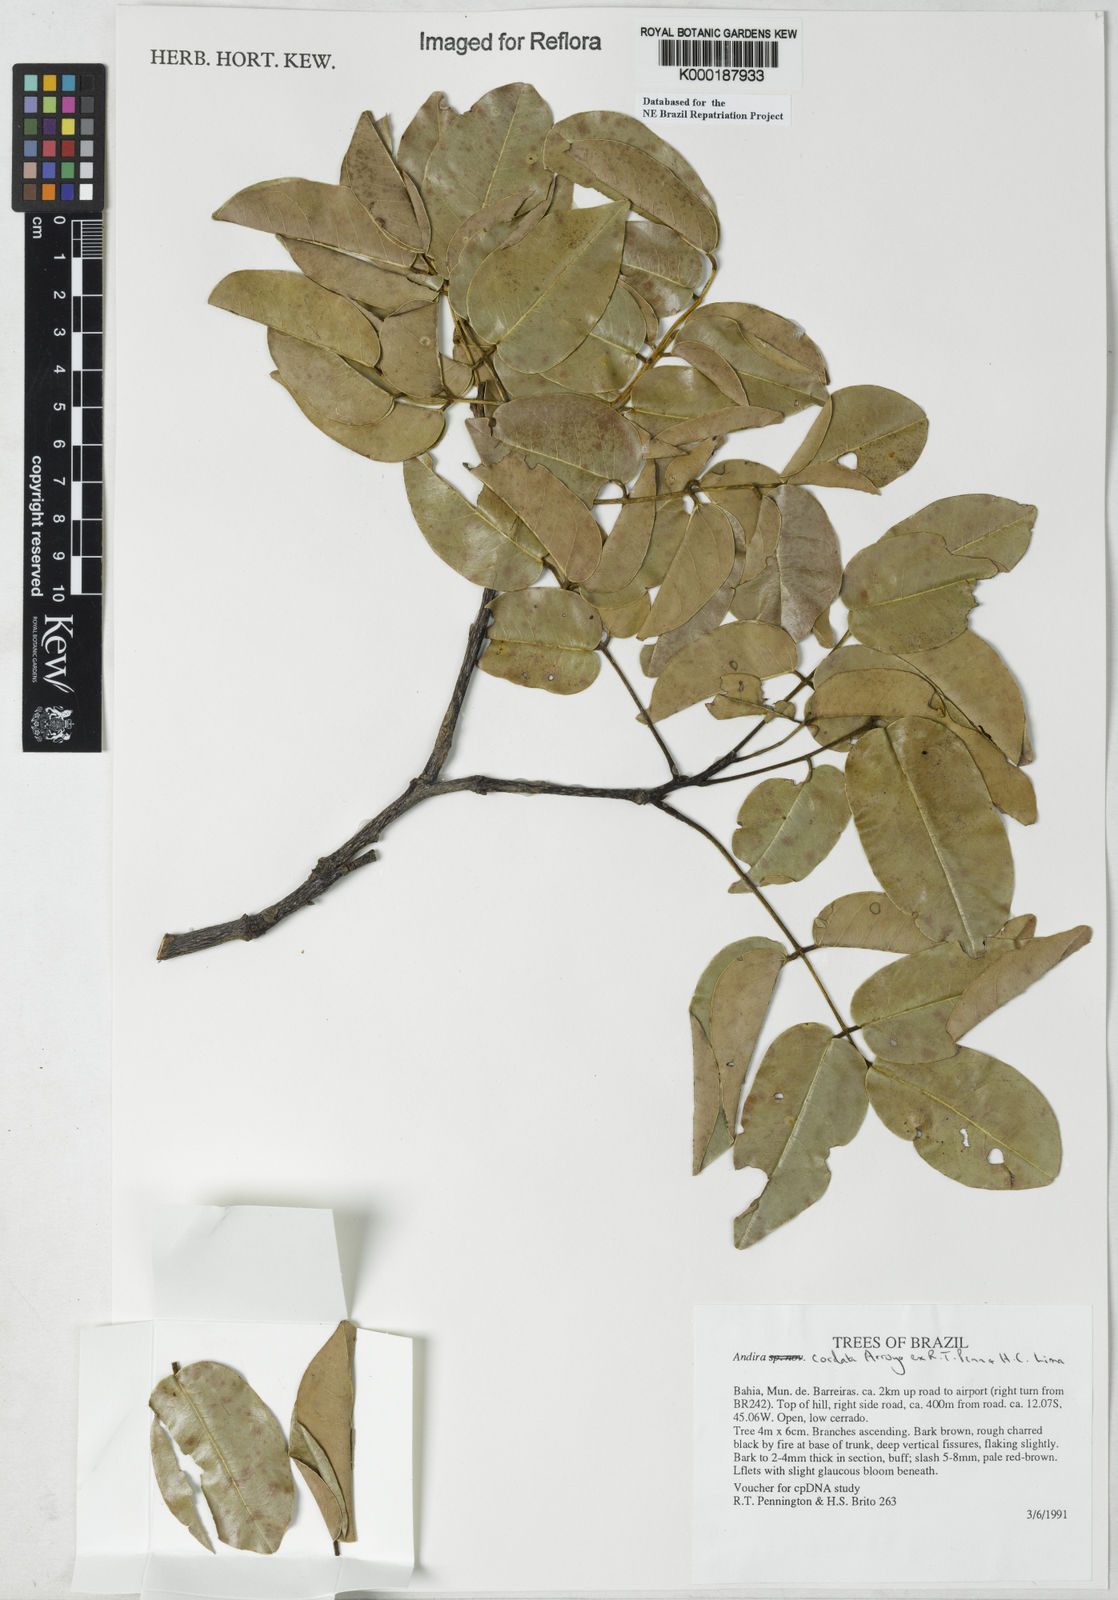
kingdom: Plantae
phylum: Tracheophyta
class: Magnoliopsida
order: Fabales
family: Fabaceae
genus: Andira
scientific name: Andira cordata
